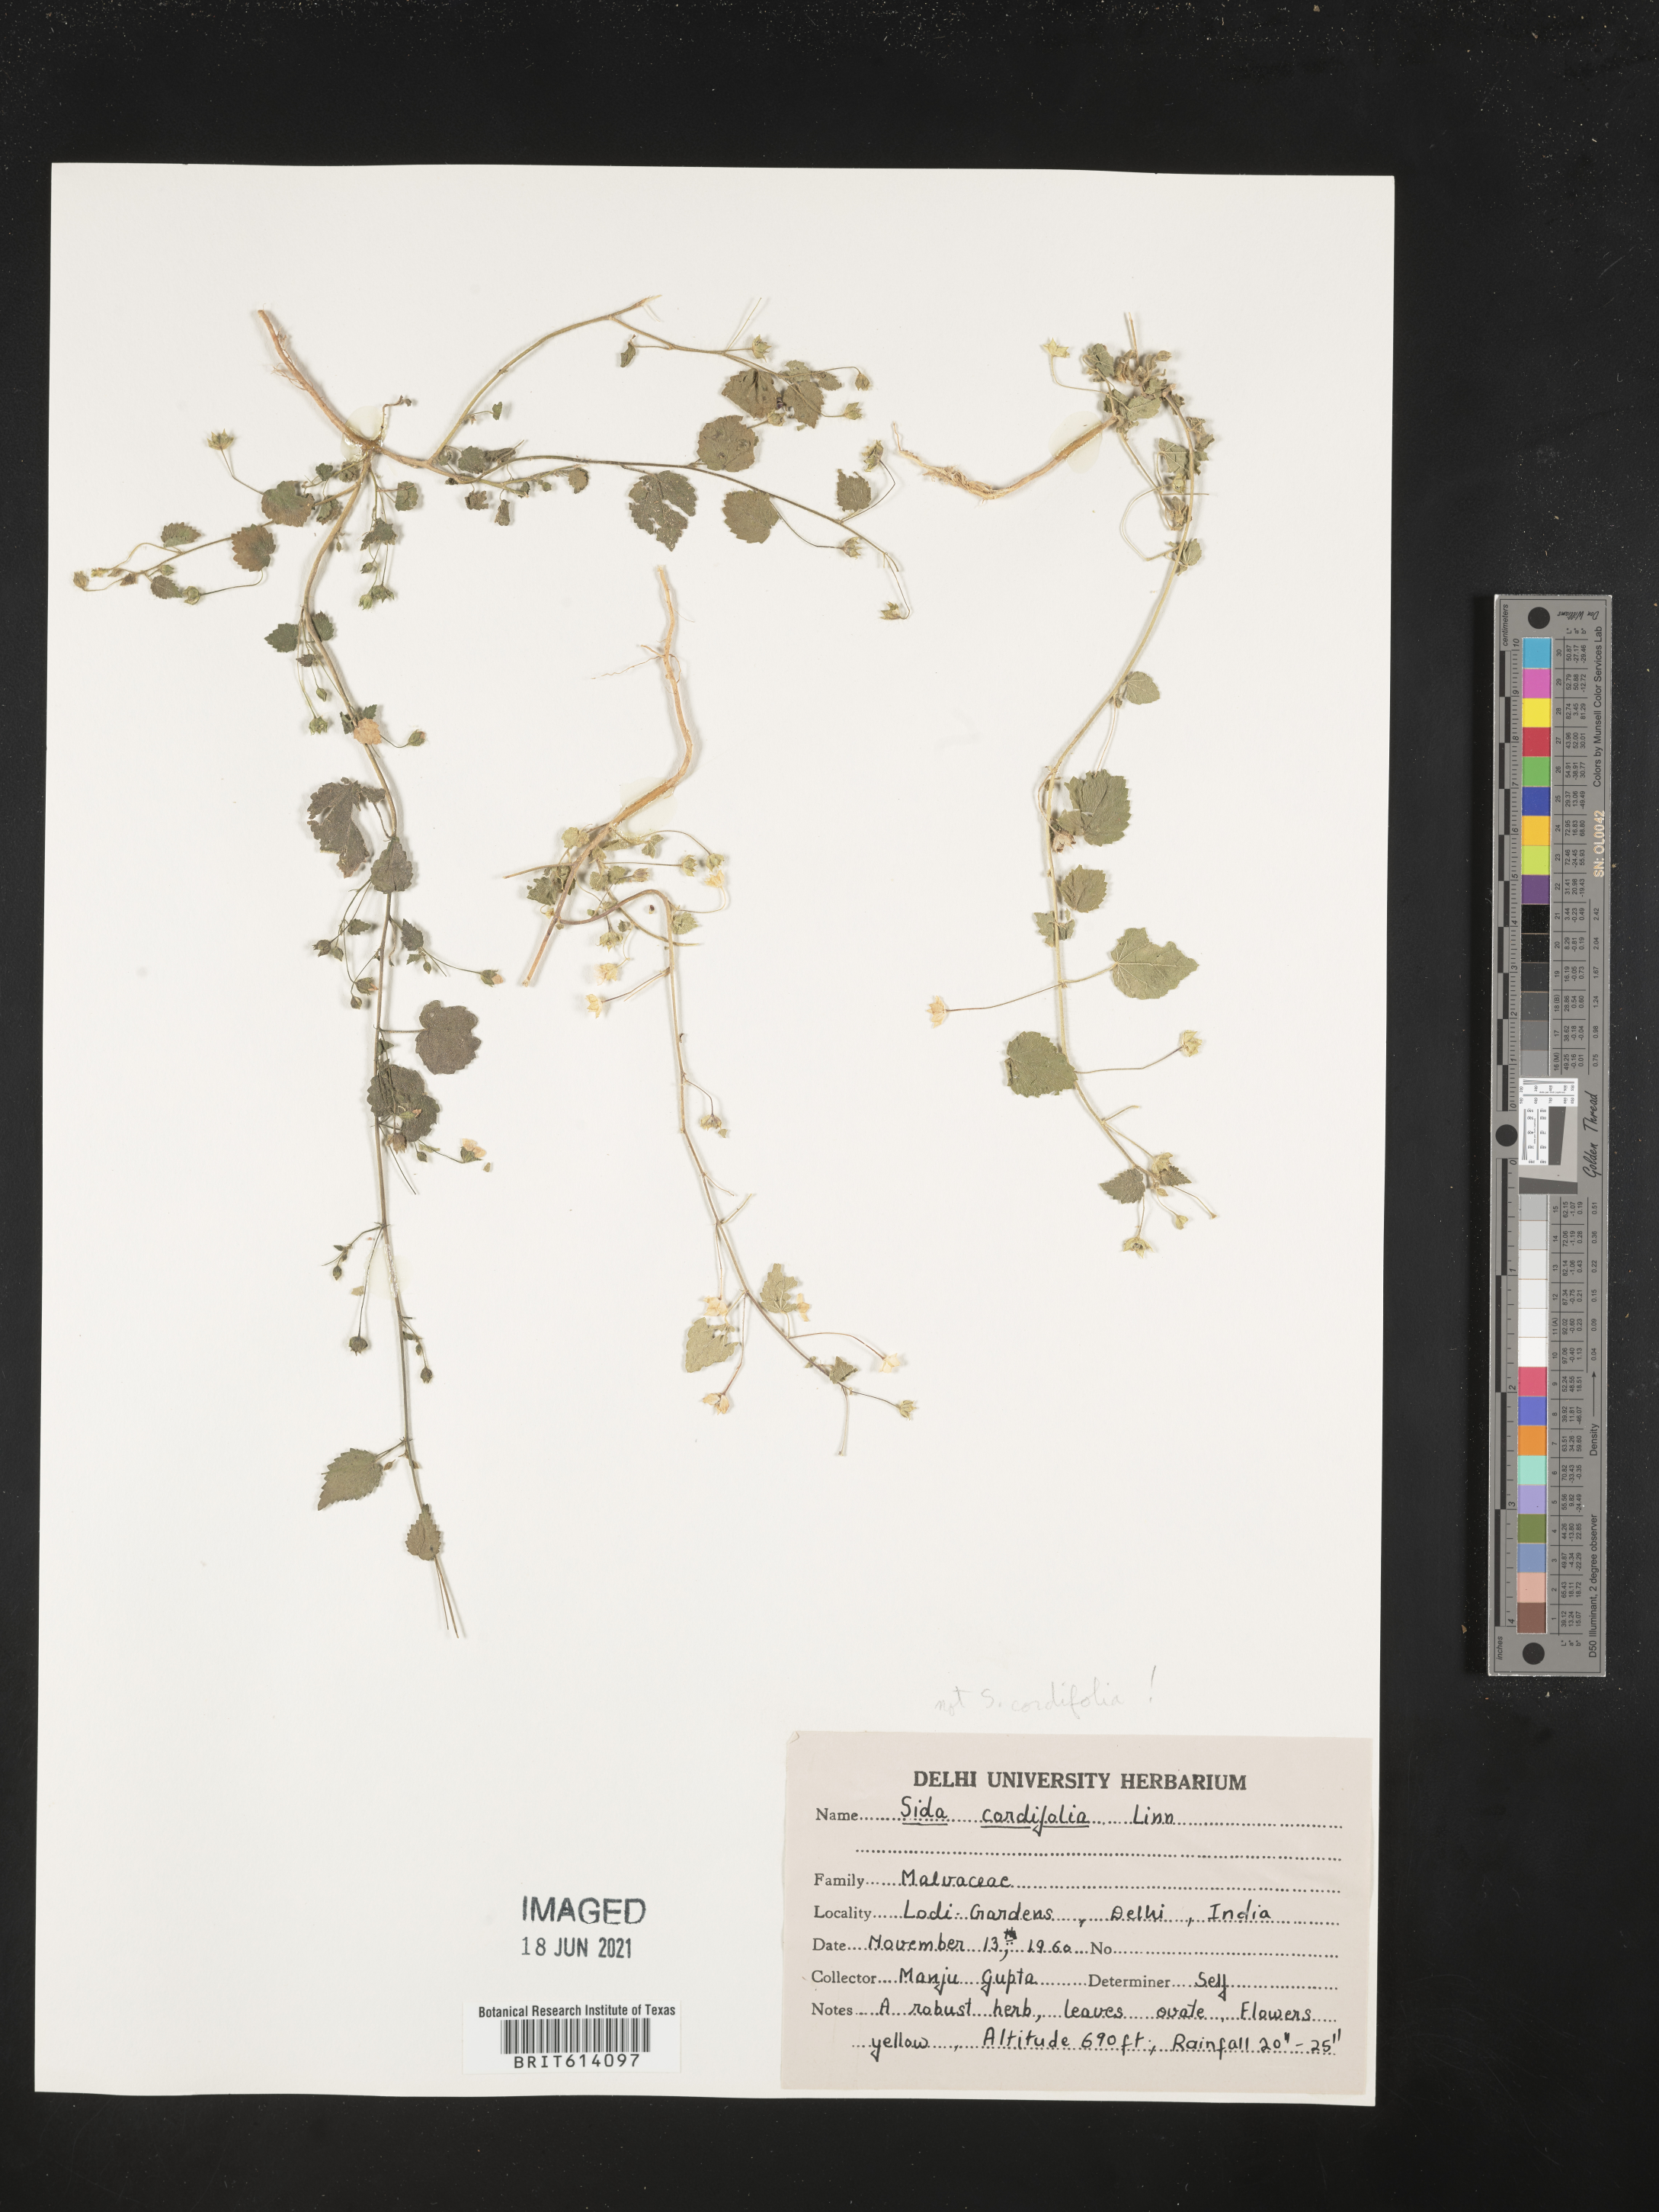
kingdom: Plantae
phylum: Tracheophyta
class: Magnoliopsida
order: Malvales
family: Malvaceae
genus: Sida
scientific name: Sida
